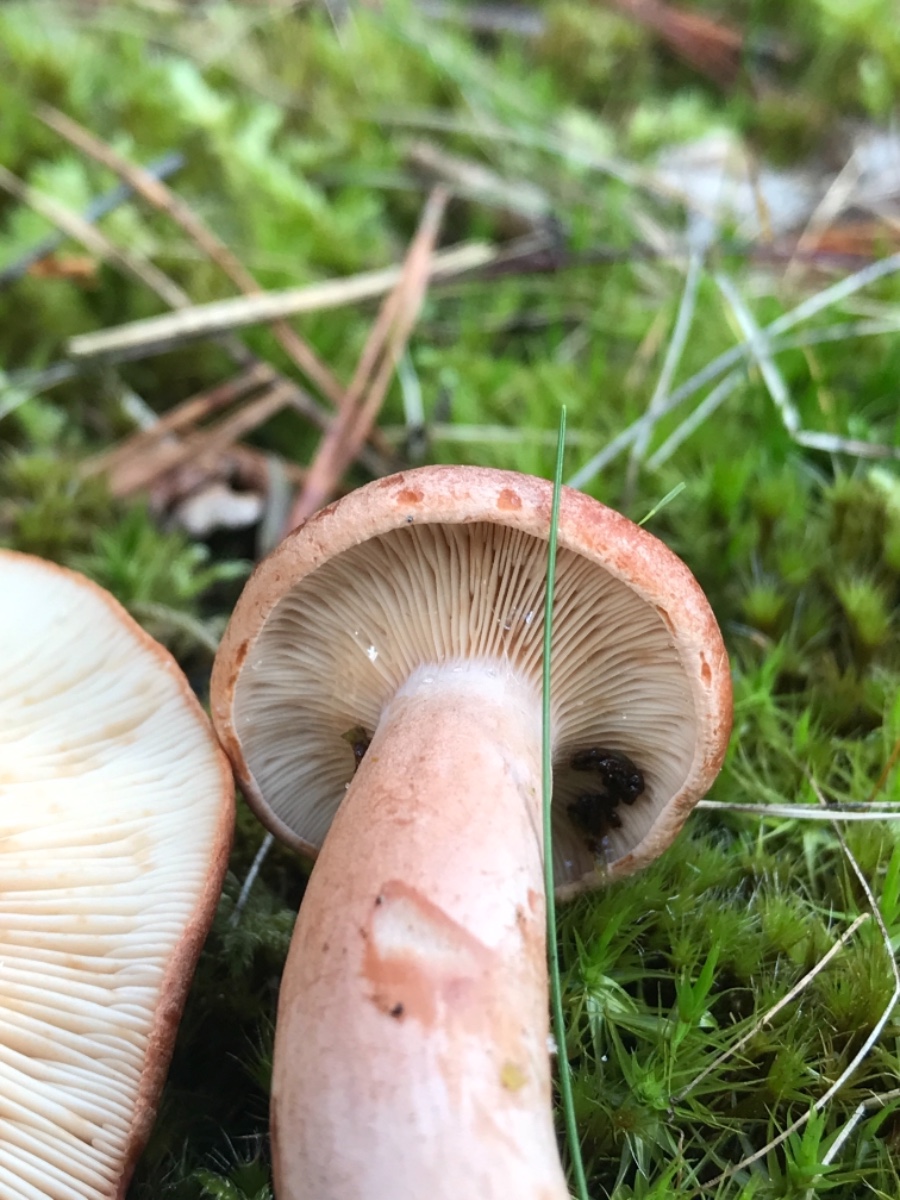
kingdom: Fungi
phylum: Basidiomycota
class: Agaricomycetes
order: Russulales
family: Russulaceae
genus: Lactarius
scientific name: Lactarius rufus
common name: rødbrun mælkehat
